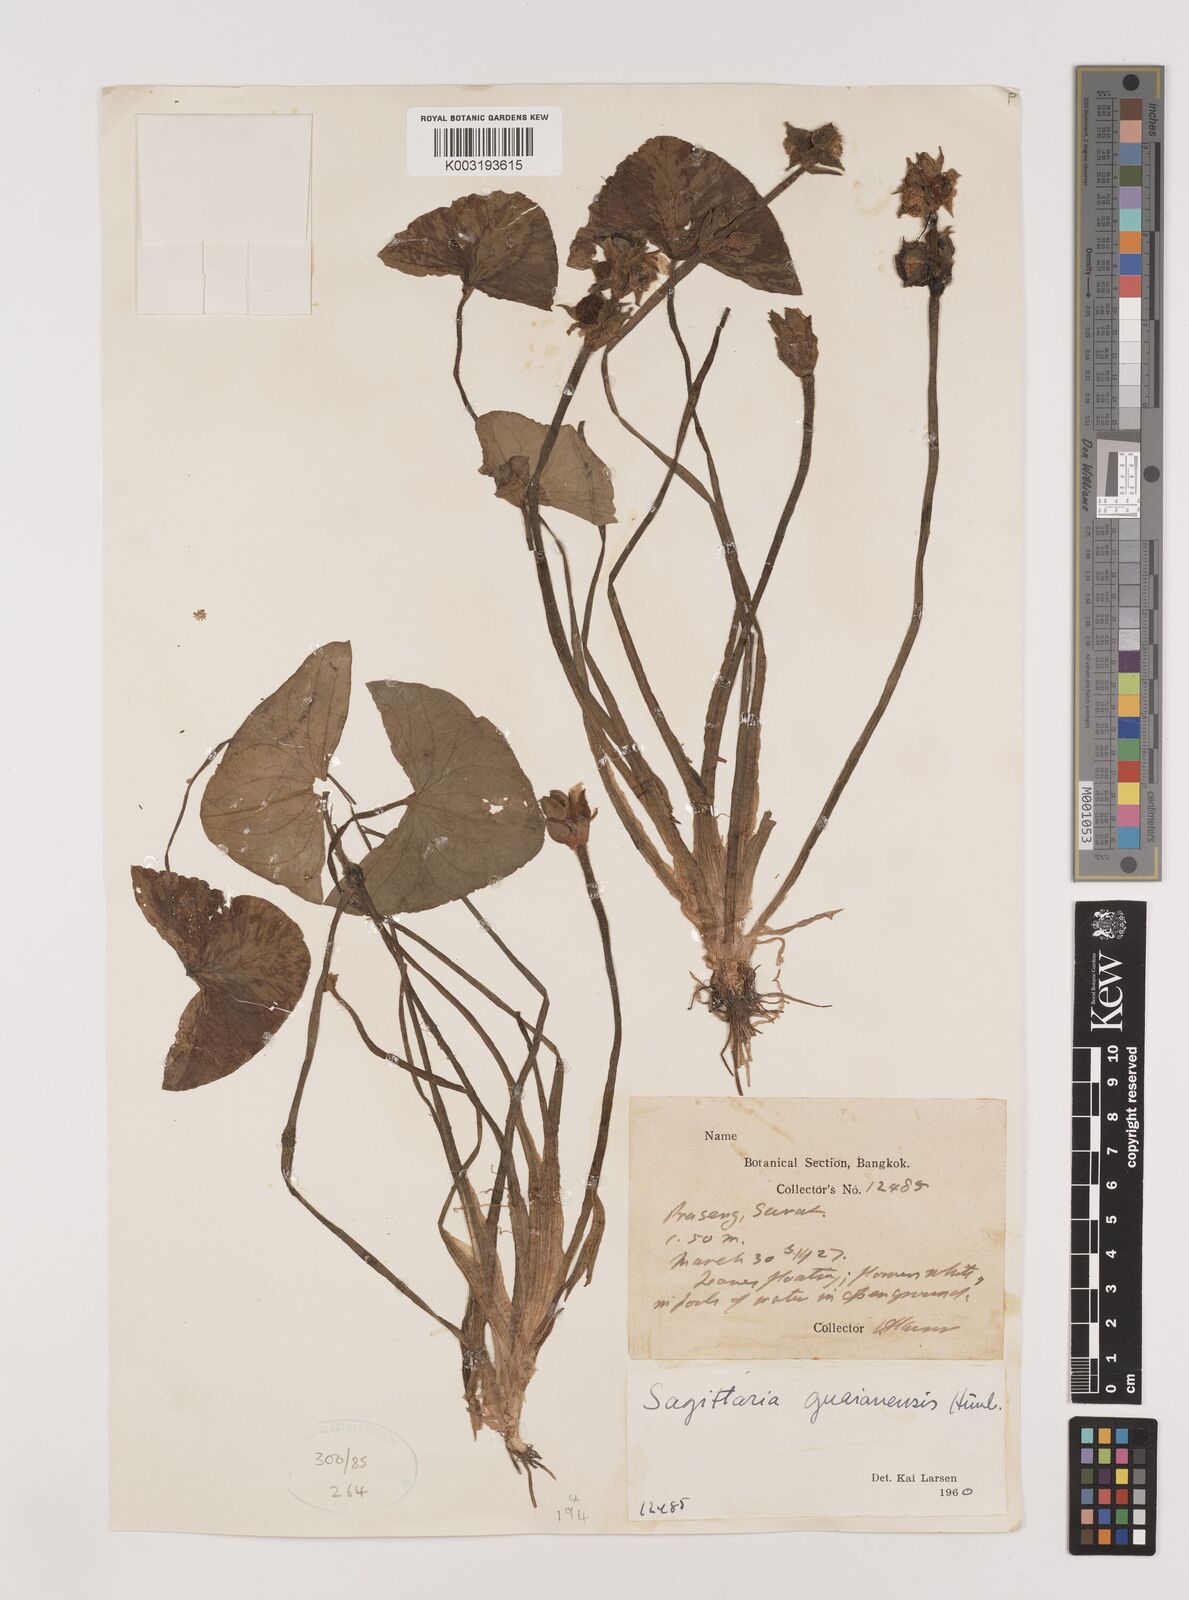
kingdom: Plantae
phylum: Tracheophyta
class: Liliopsida
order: Alismatales
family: Alismataceae
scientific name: Alismataceae
